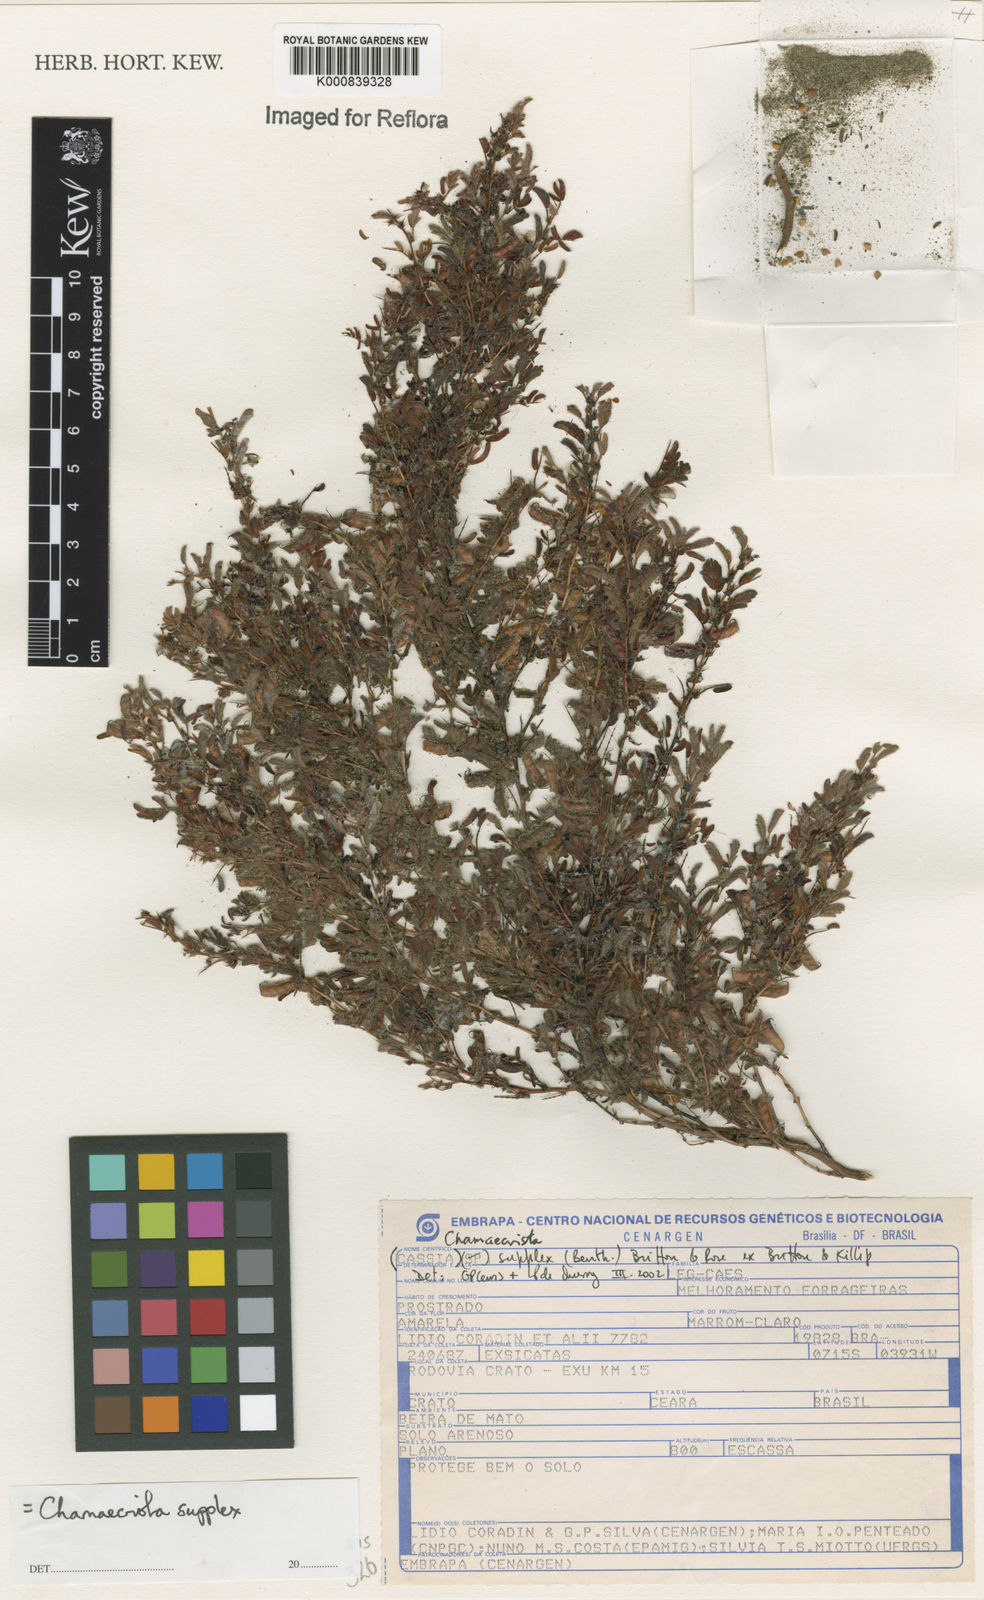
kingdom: Plantae
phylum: Tracheophyta
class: Magnoliopsida
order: Fabales
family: Fabaceae
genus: Chamaecrista
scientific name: Chamaecrista supplex
